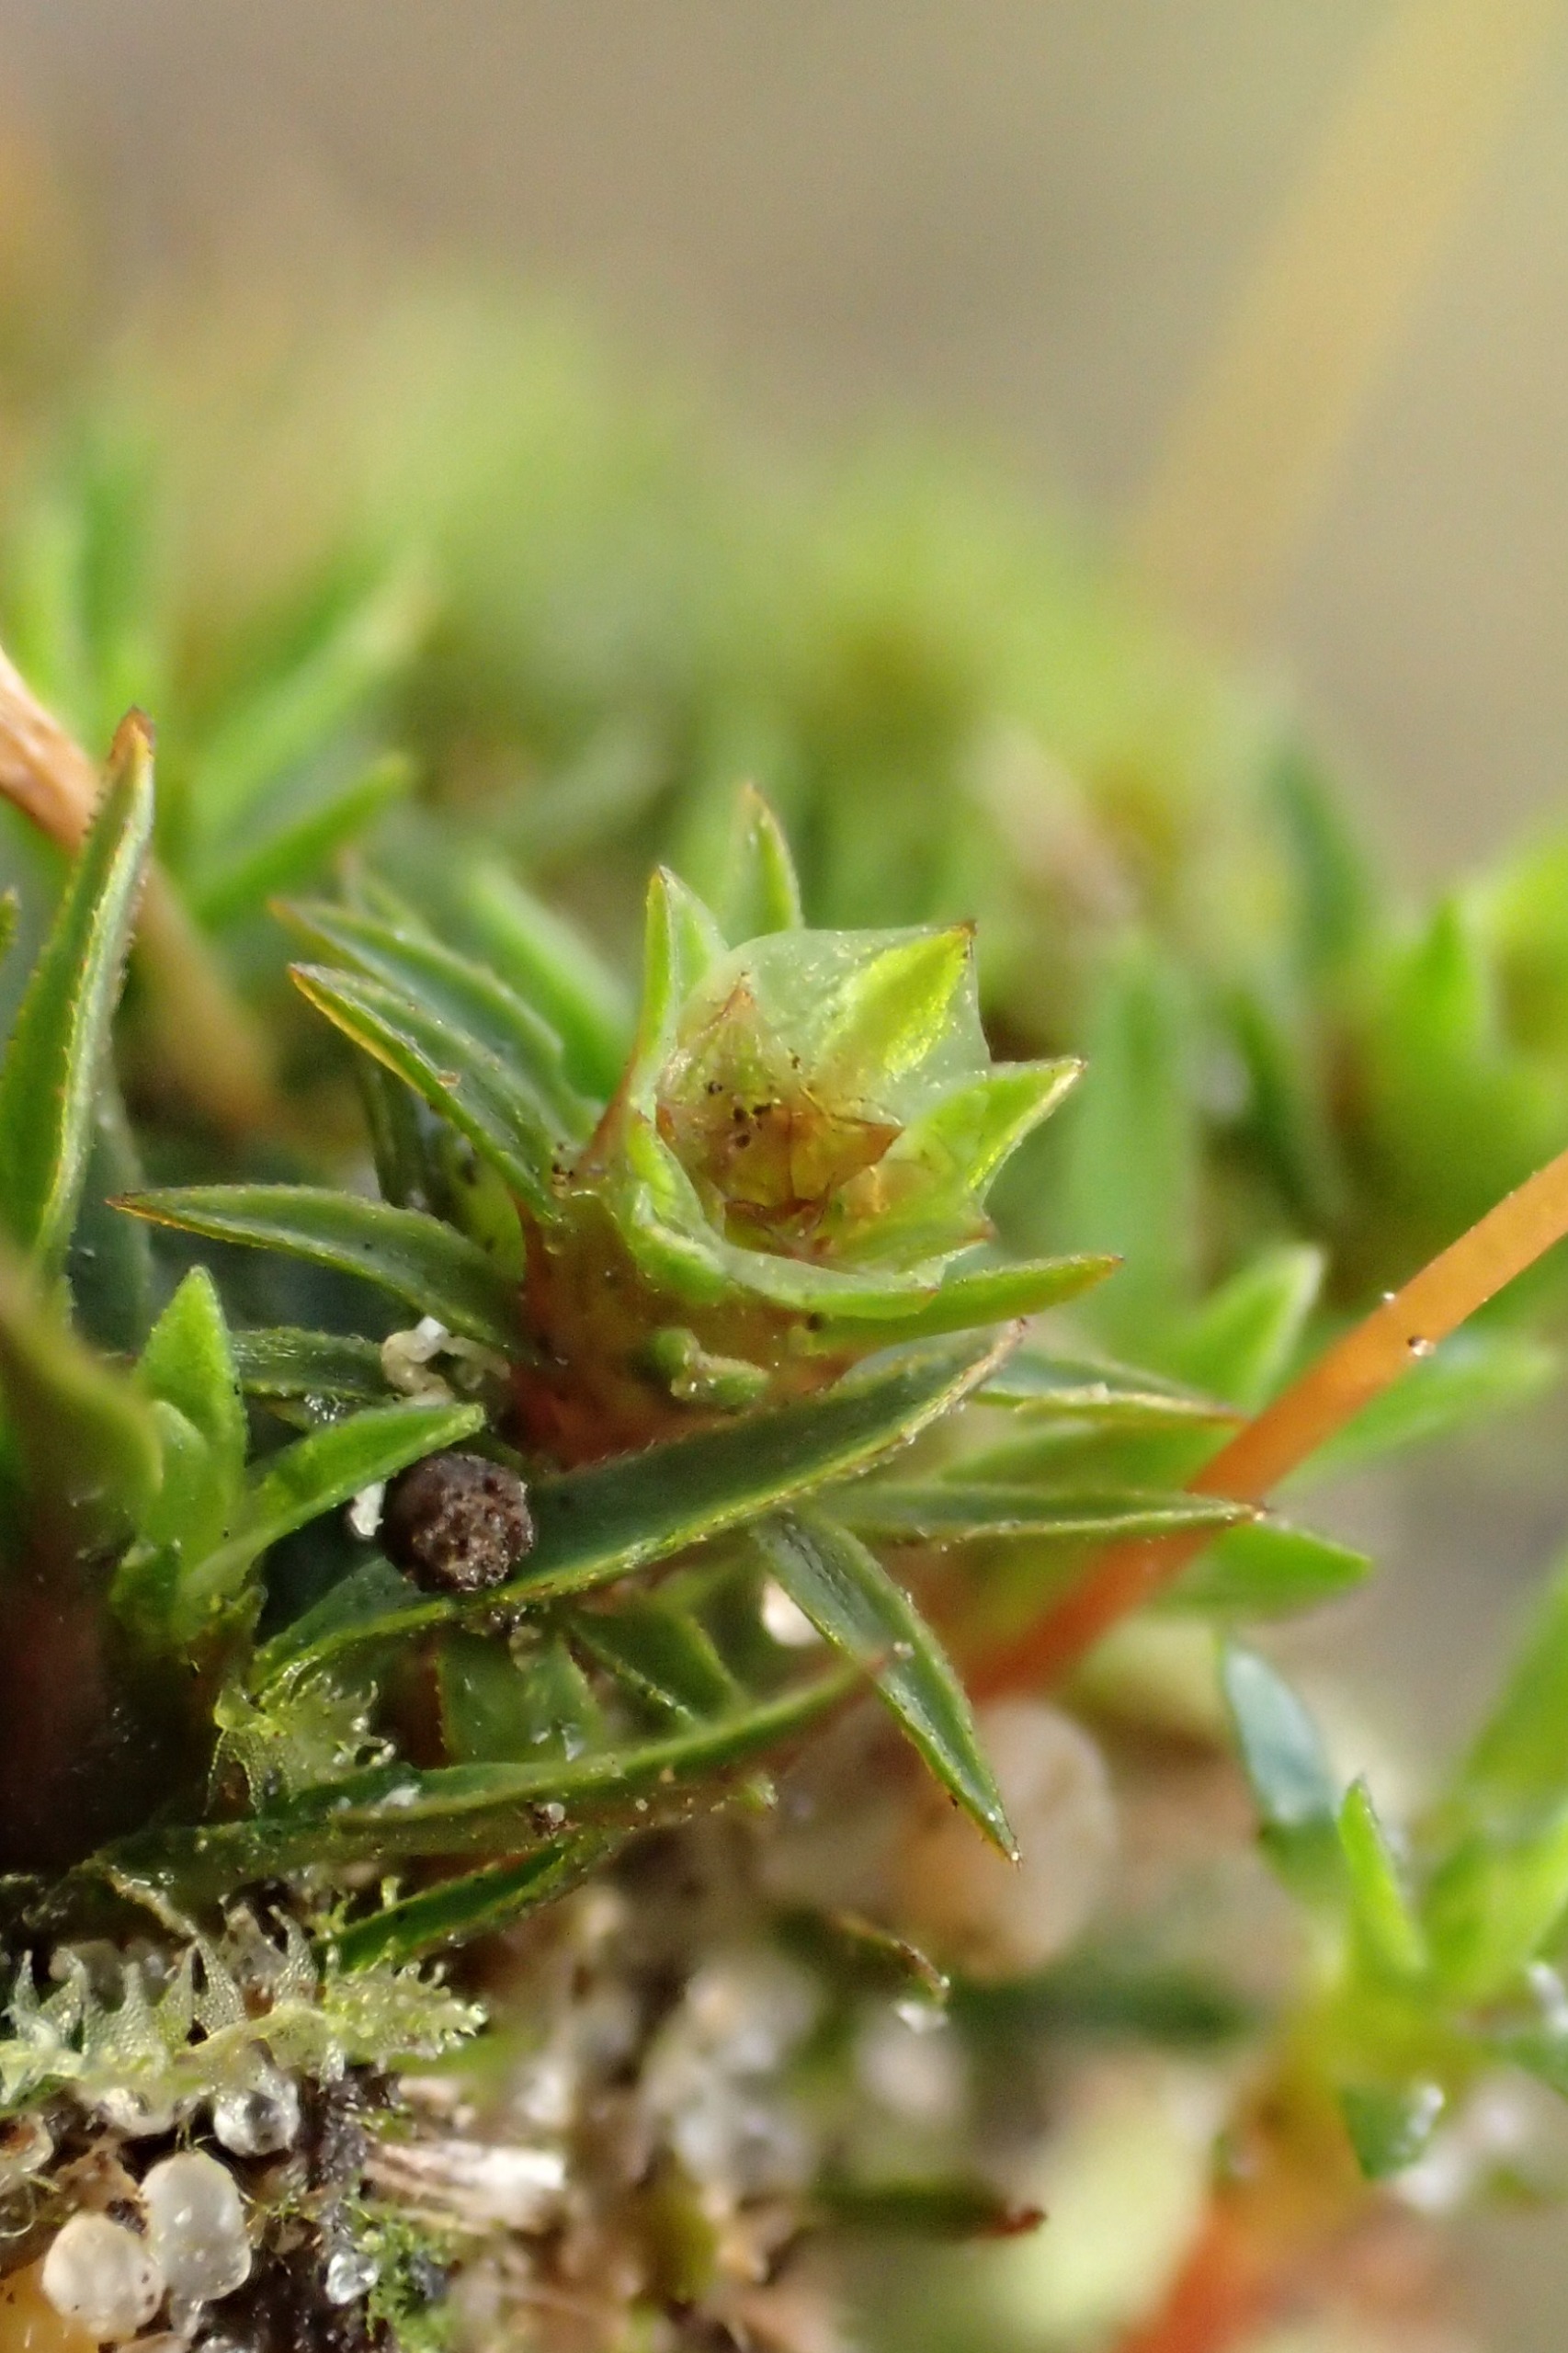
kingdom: Plantae
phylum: Bryophyta
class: Polytrichopsida
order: Polytrichales
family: Polytrichaceae
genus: Pogonatum
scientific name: Pogonatum aloides
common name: Smal urnekapsel
